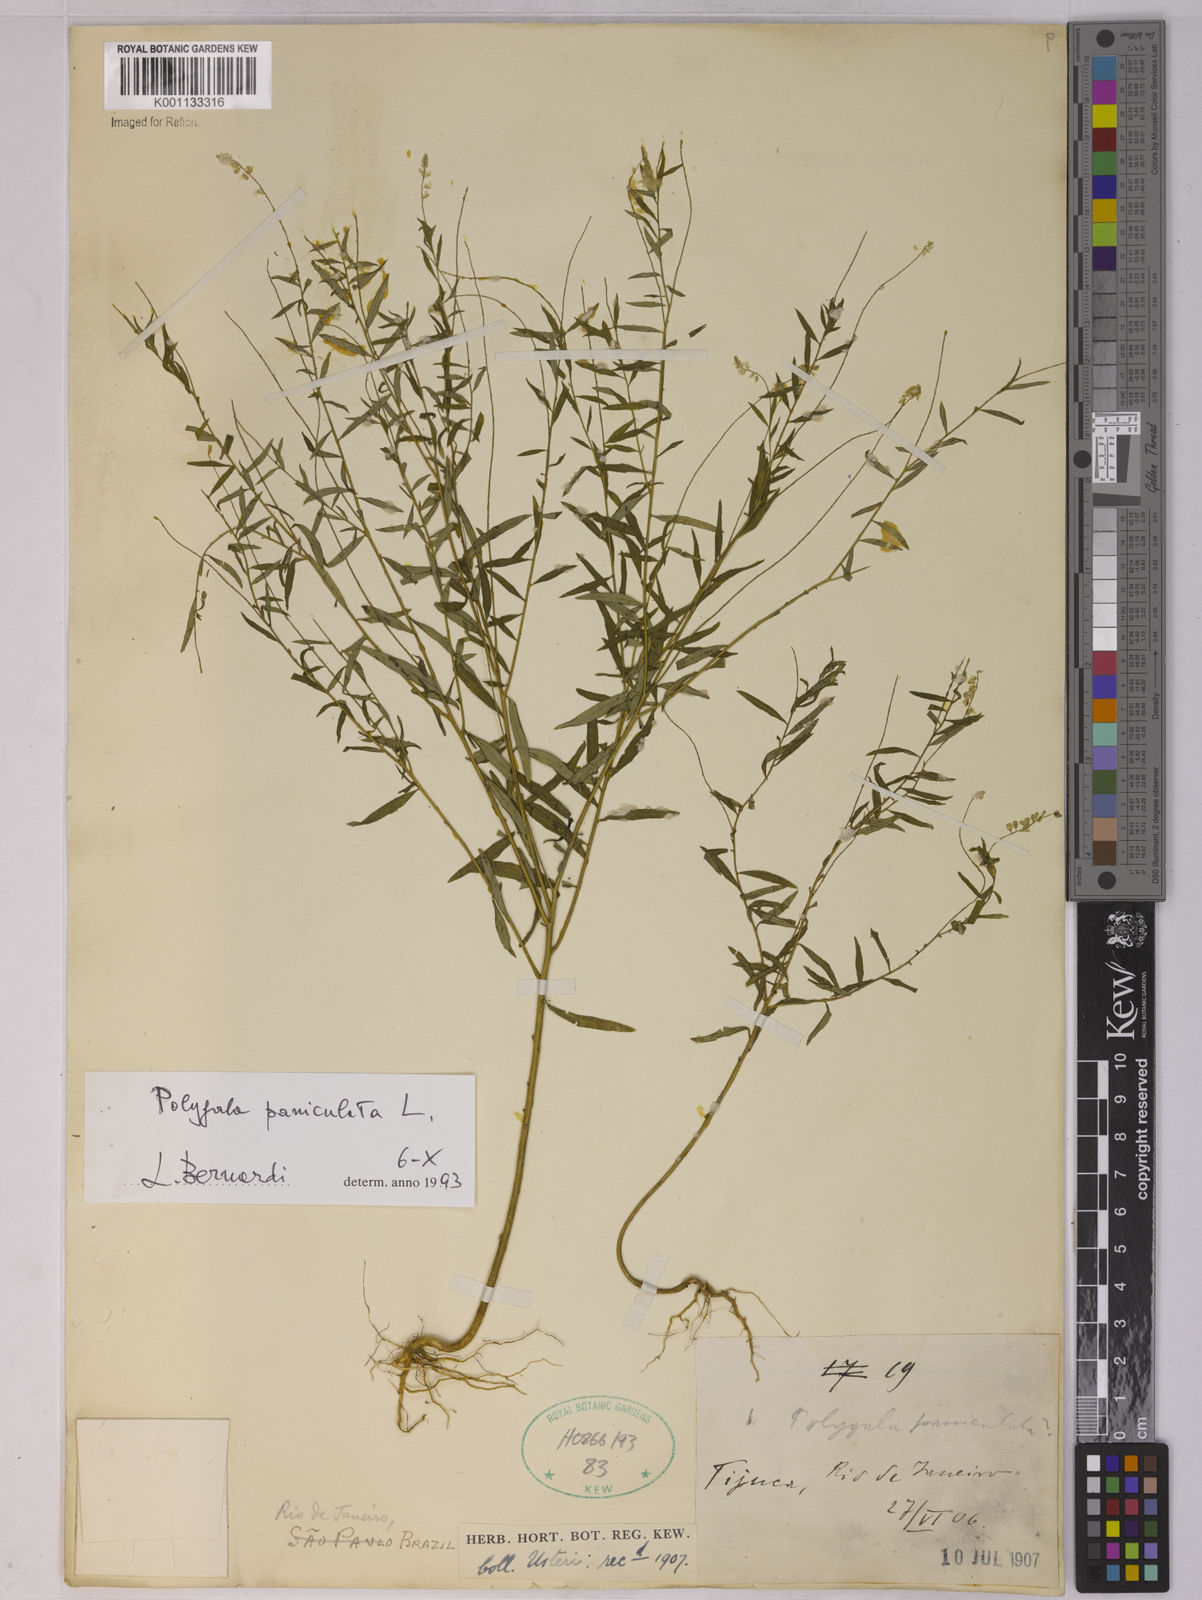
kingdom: Plantae
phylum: Tracheophyta
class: Magnoliopsida
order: Fabales
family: Polygalaceae
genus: Polygala
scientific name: Polygala paniculata
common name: Orosne
